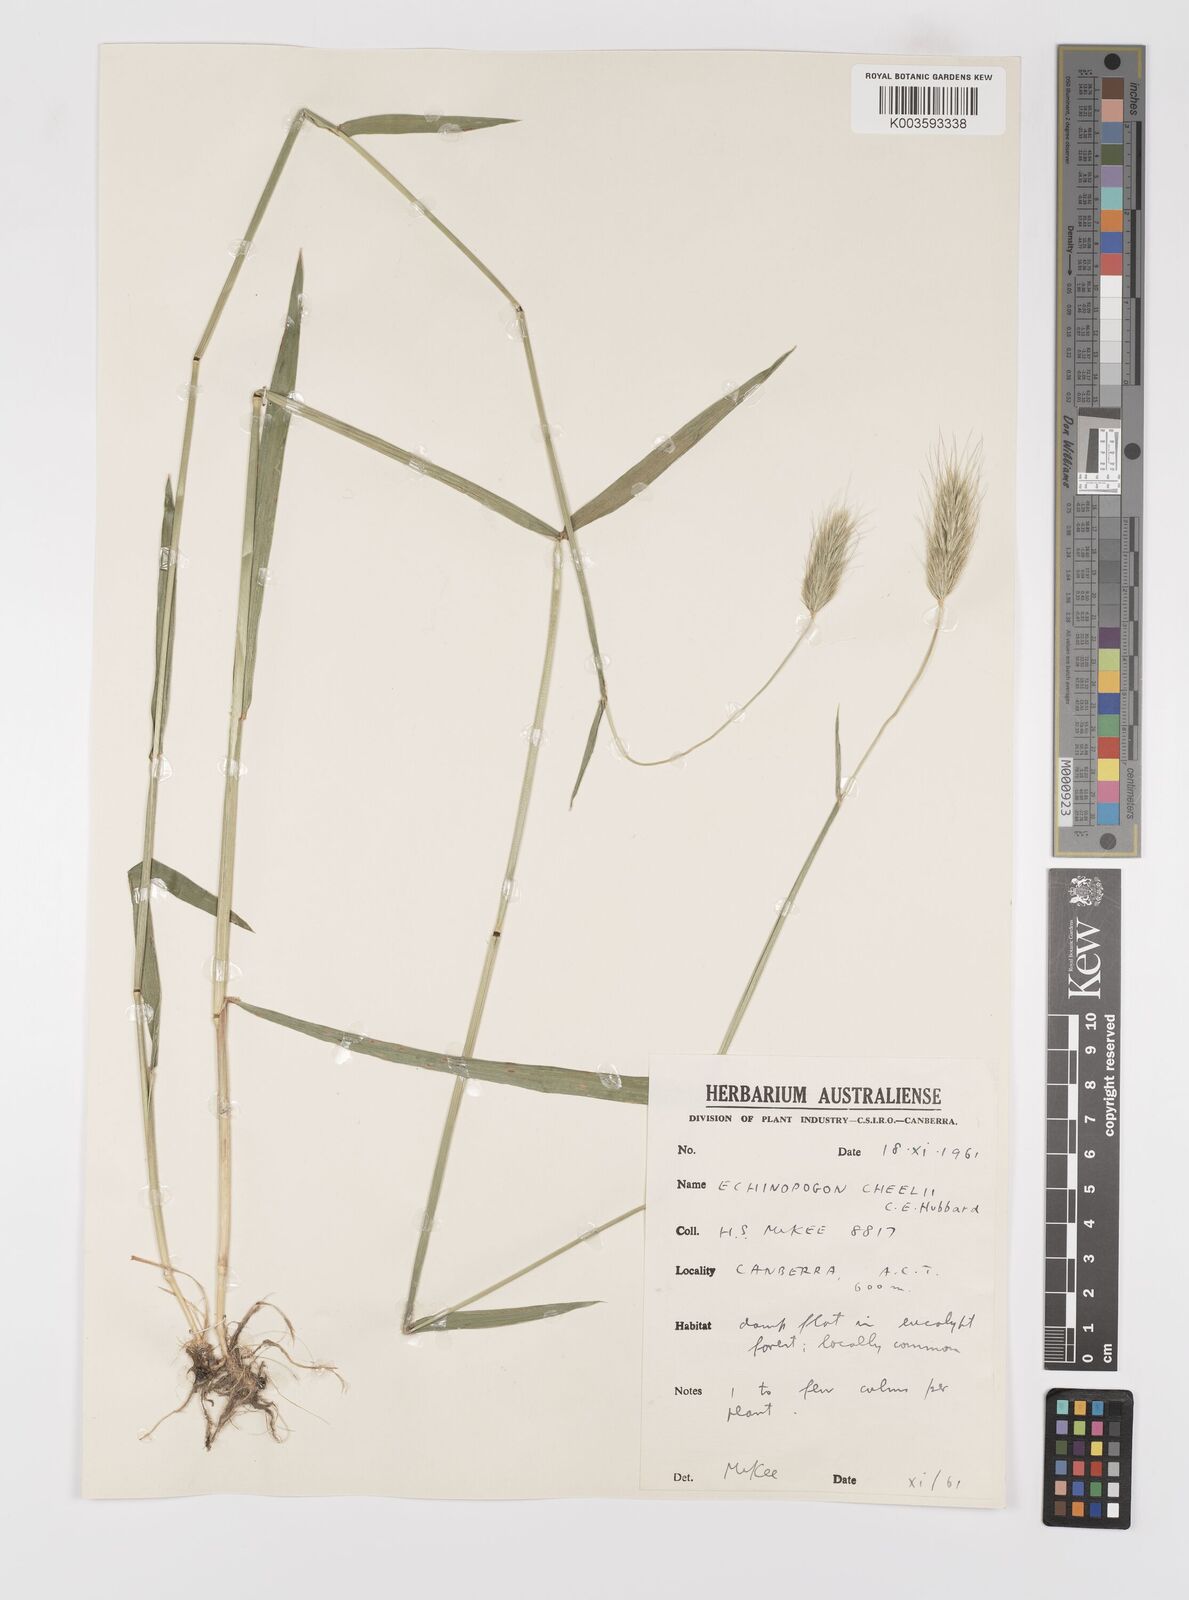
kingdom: Plantae
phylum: Tracheophyta
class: Liliopsida
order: Poales
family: Poaceae
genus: Echinopogon
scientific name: Echinopogon cheelii
